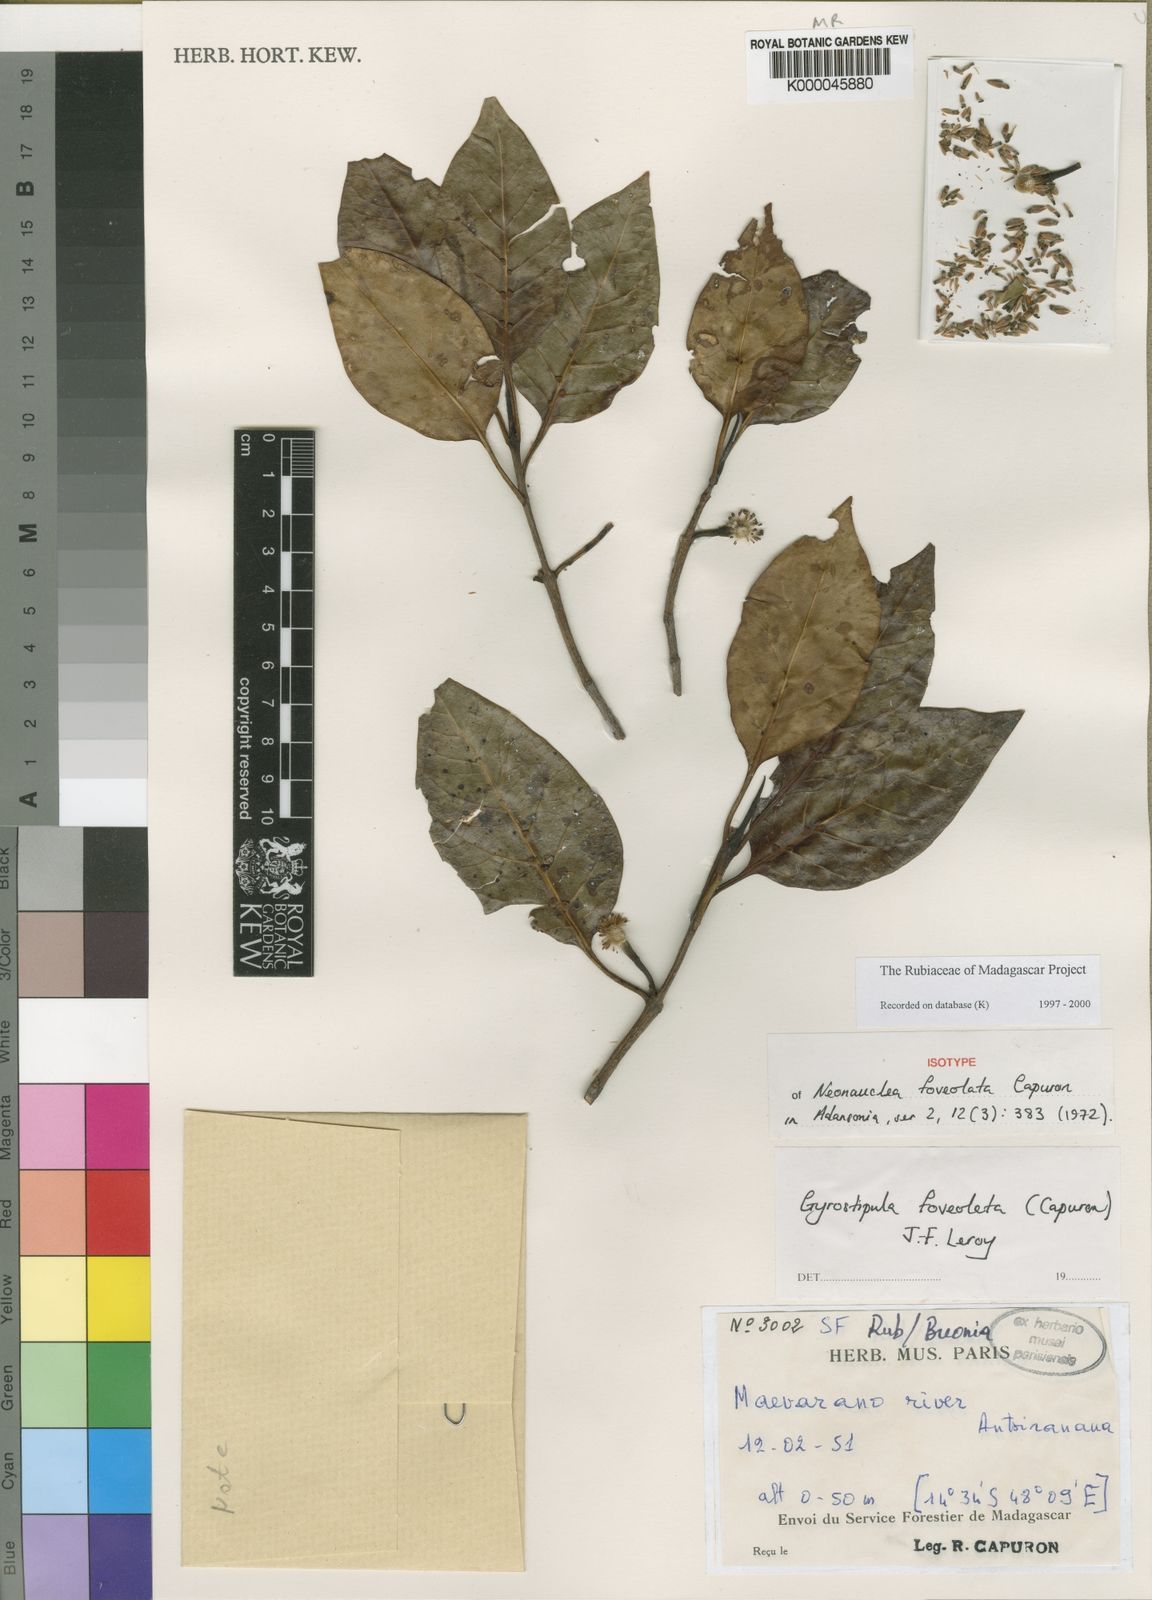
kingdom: Plantae
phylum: Tracheophyta
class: Magnoliopsida
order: Gentianales
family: Rubiaceae
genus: Gyrostipula
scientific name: Gyrostipula foveolata
